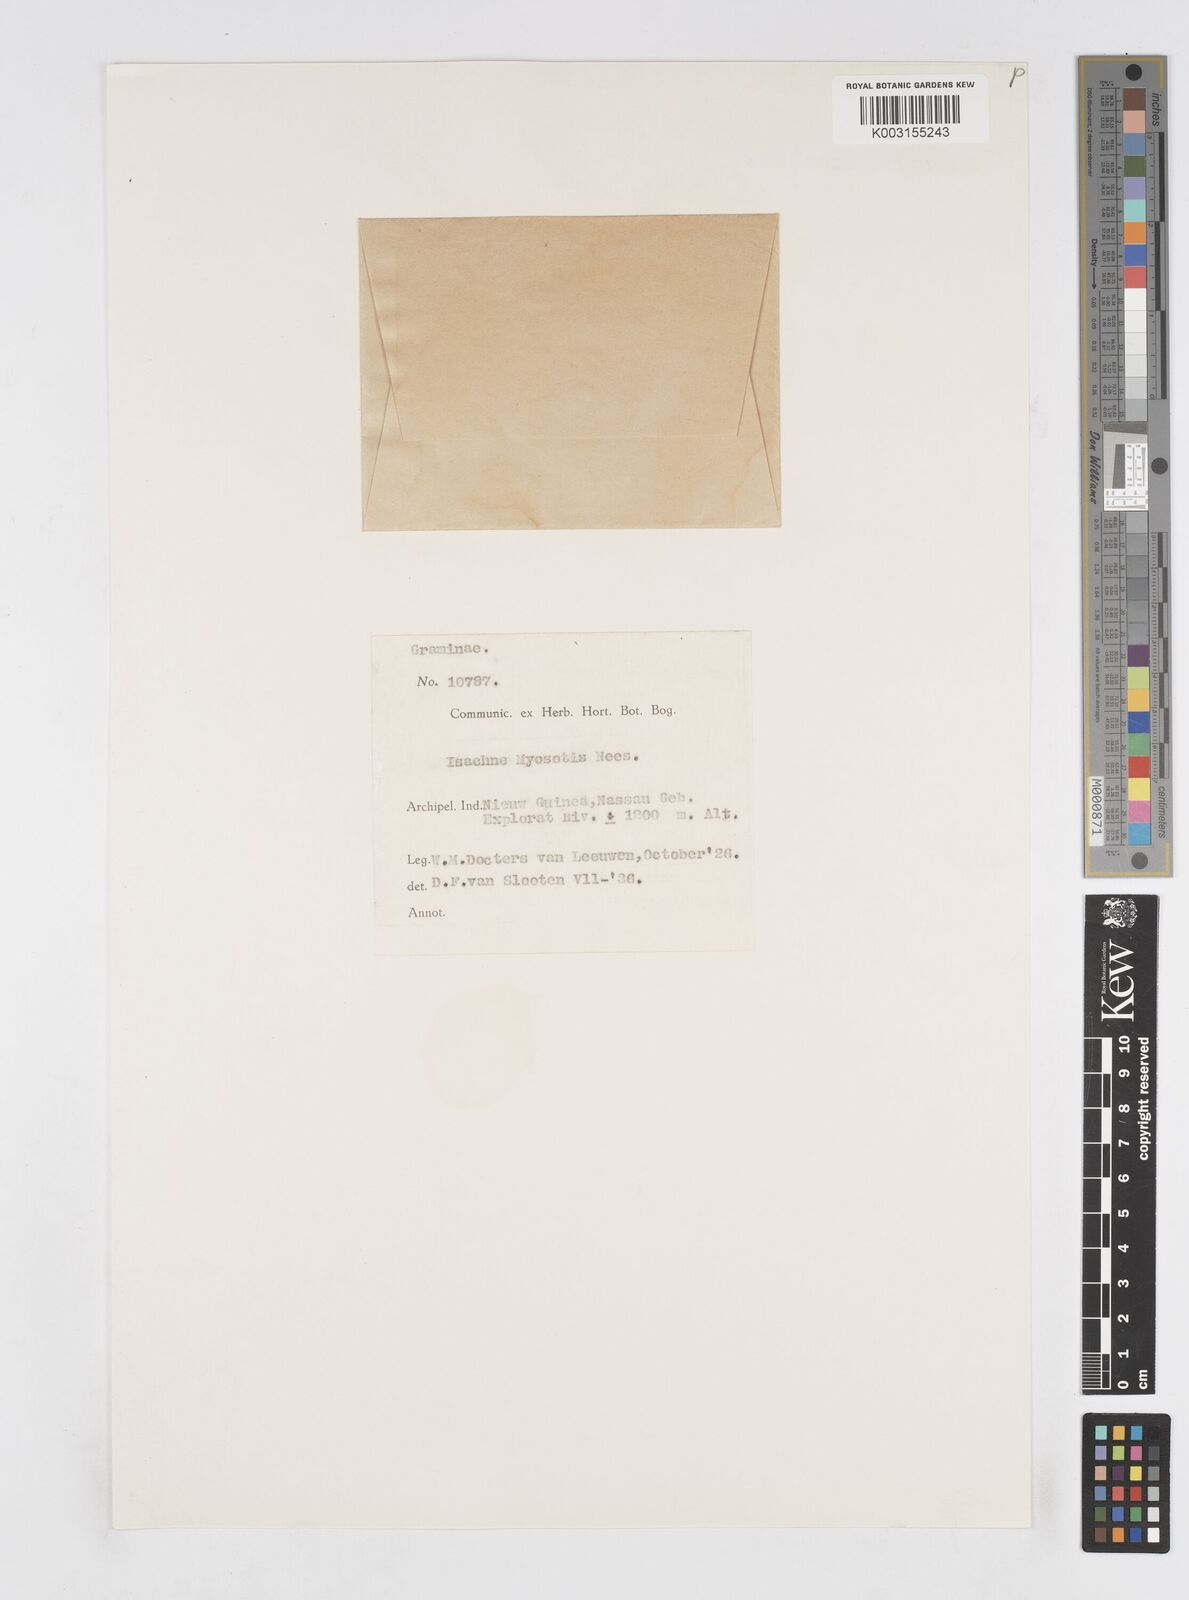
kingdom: Plantae
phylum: Tracheophyta
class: Liliopsida
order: Poales
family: Poaceae
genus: Isachne
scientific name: Isachne myosotis
